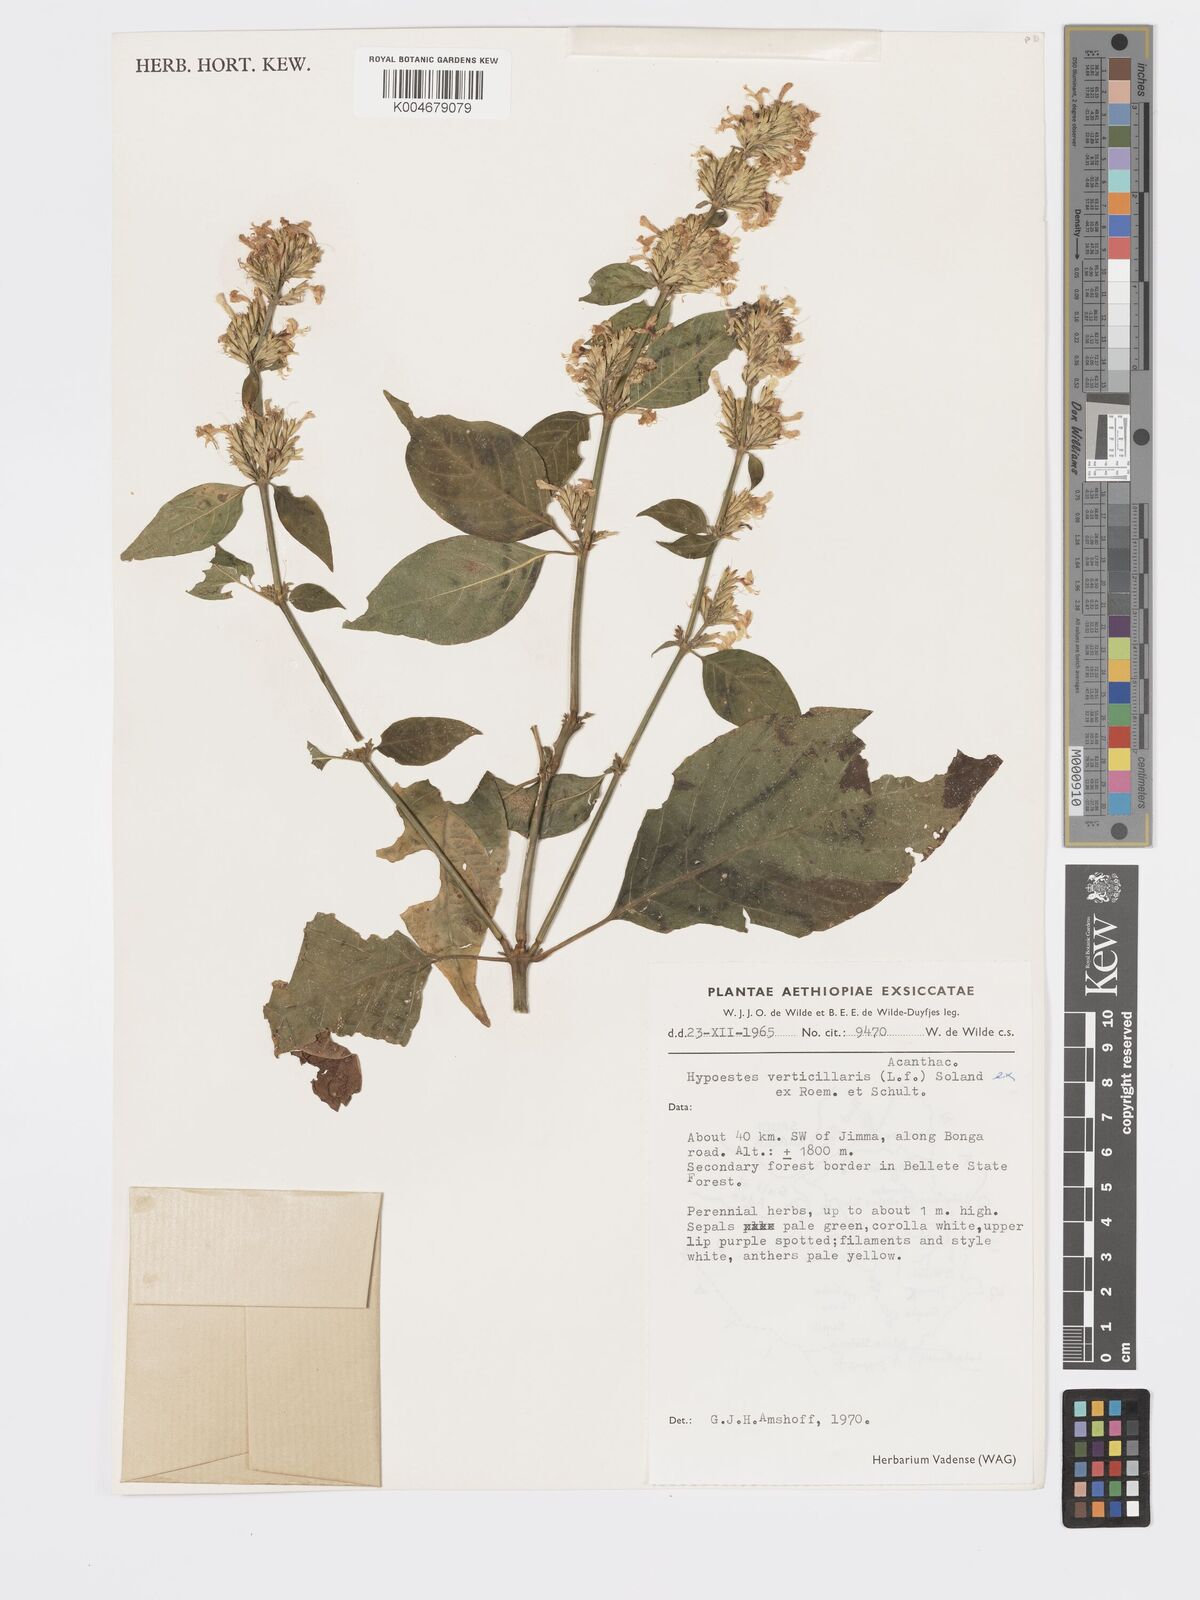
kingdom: Plantae
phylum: Tracheophyta
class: Magnoliopsida
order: Lamiales
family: Acanthaceae
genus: Hypoestes
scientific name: Hypoestes forskaolii
